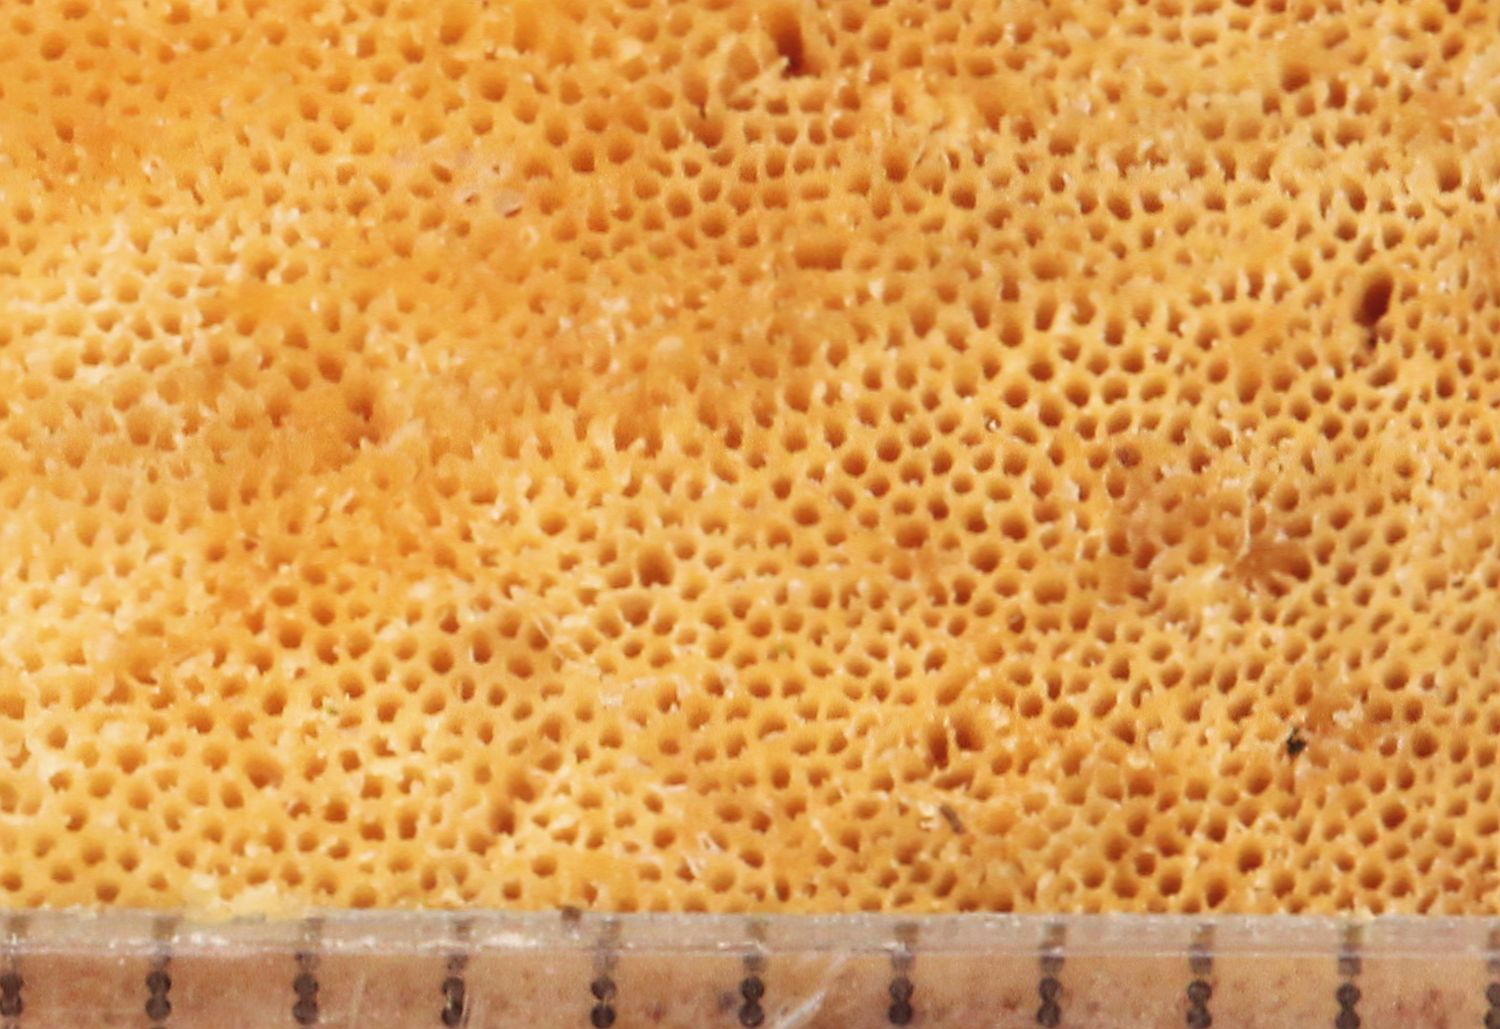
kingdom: Fungi
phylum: Basidiomycota
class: Agaricomycetes
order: Polyporales
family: Ischnodermataceae
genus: Ischnoderma
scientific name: Ischnoderma resinosum
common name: løv-tjæreporesvamp
